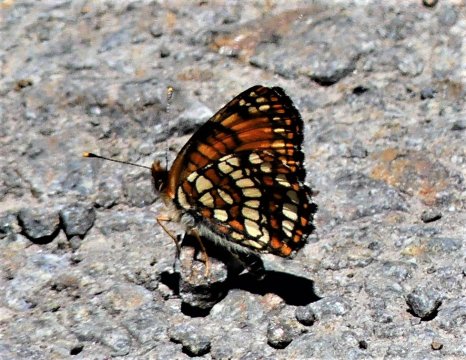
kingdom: Animalia
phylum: Arthropoda
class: Insecta
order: Lepidoptera
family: Nymphalidae
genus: Occidryas
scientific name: Occidryas chalcedona
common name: Chalcedon Checkerspot
